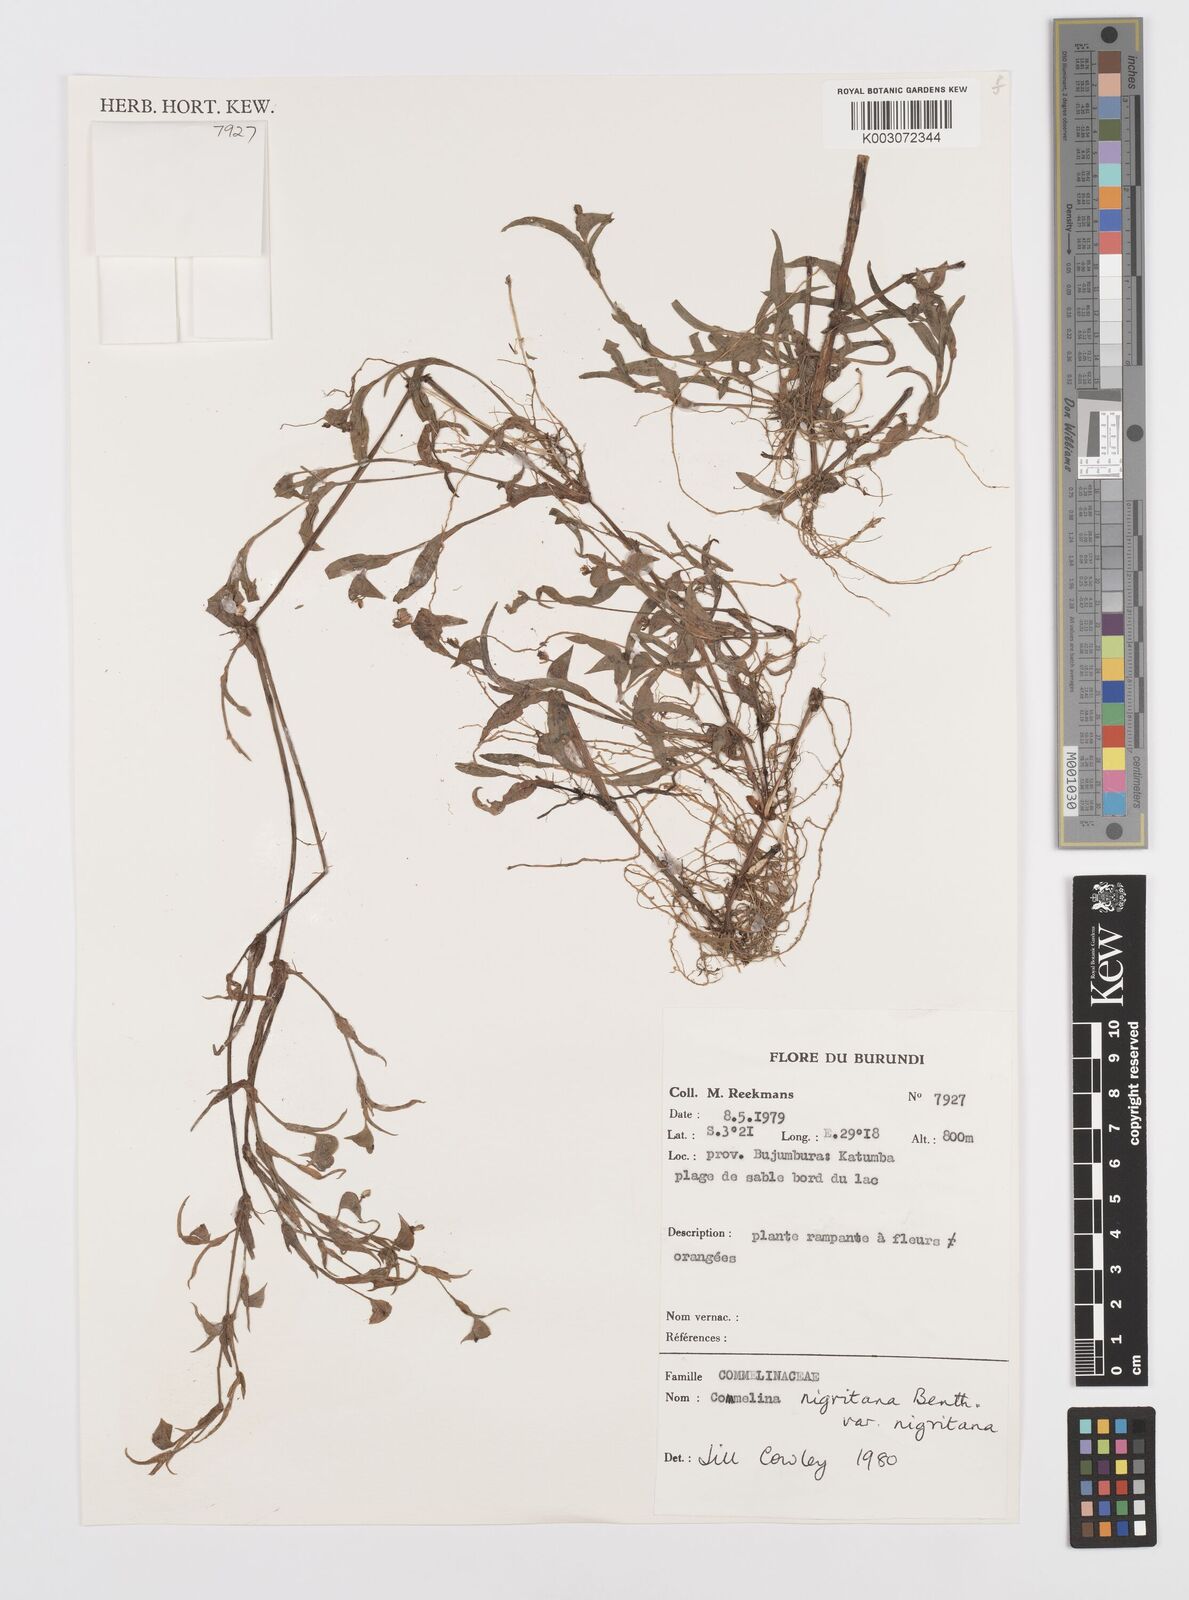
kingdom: Plantae
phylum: Tracheophyta
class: Liliopsida
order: Commelinales
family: Commelinaceae
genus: Commelina
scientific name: Commelina
